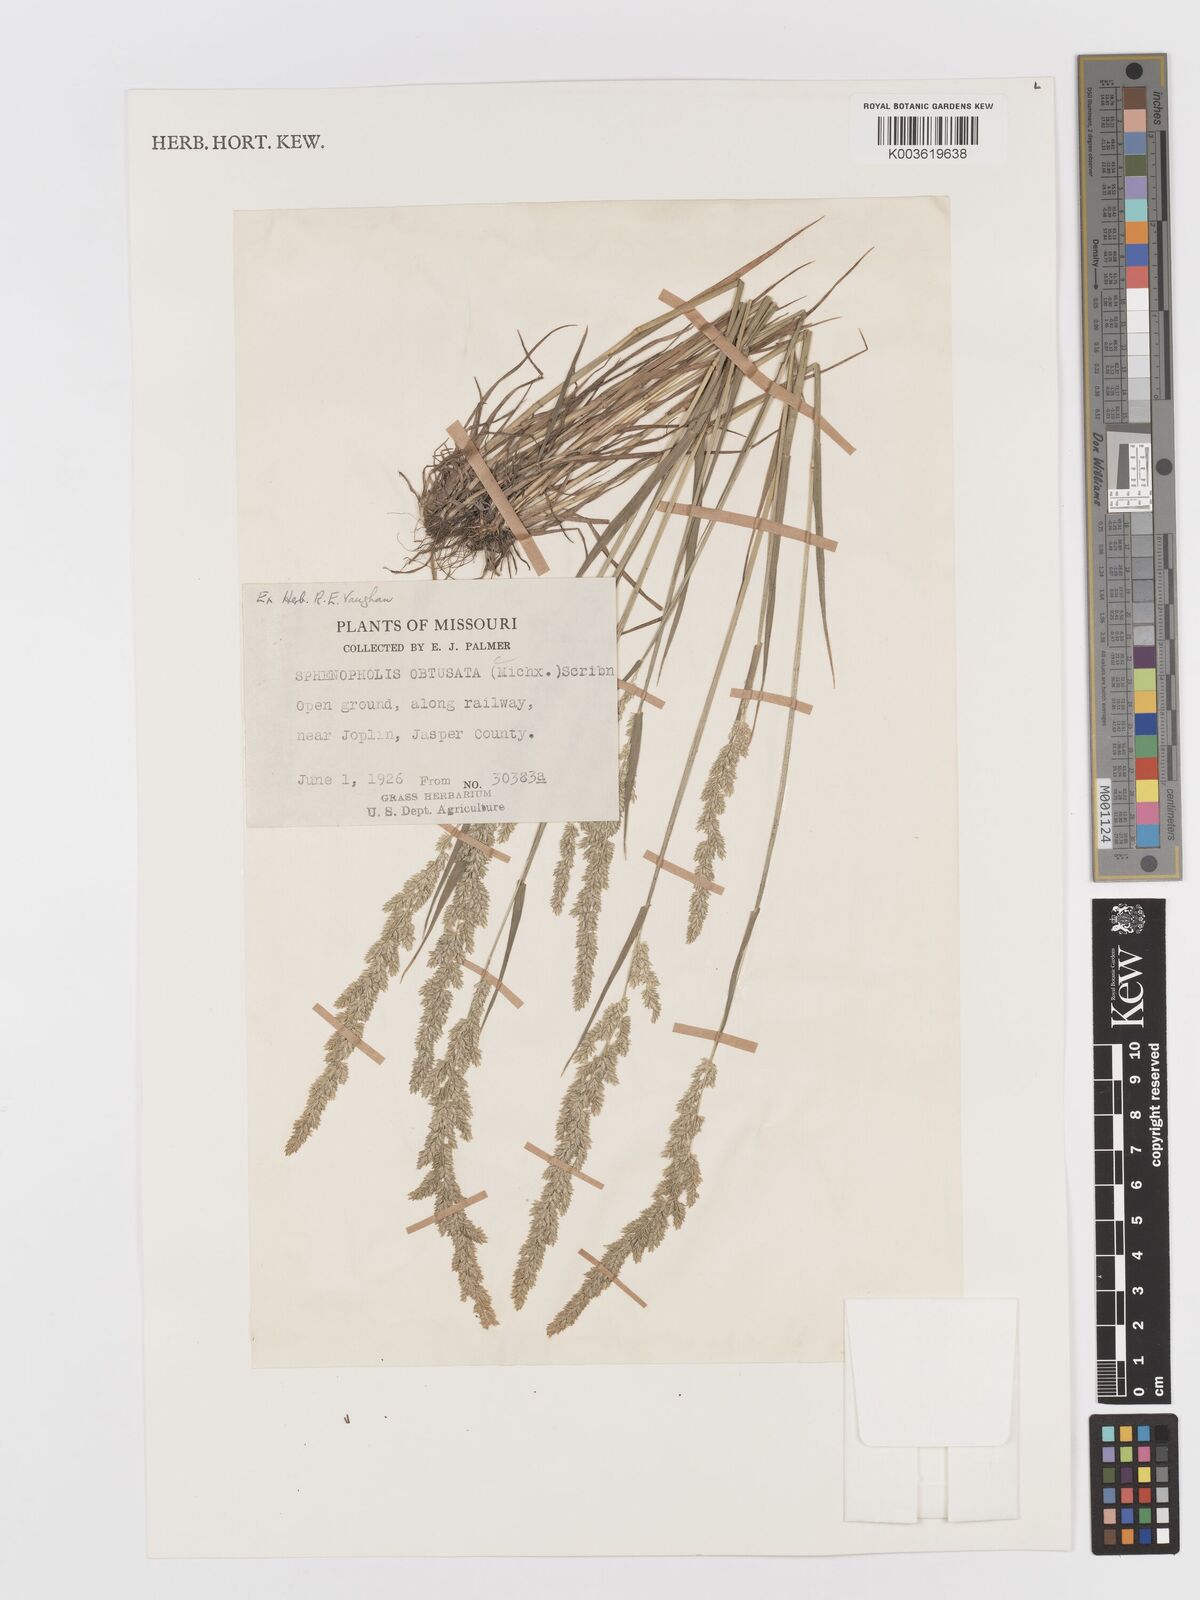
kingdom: Plantae
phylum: Tracheophyta
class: Liliopsida
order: Poales
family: Poaceae
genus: Sphenopholis
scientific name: Sphenopholis obtusata
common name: Prairie grass
